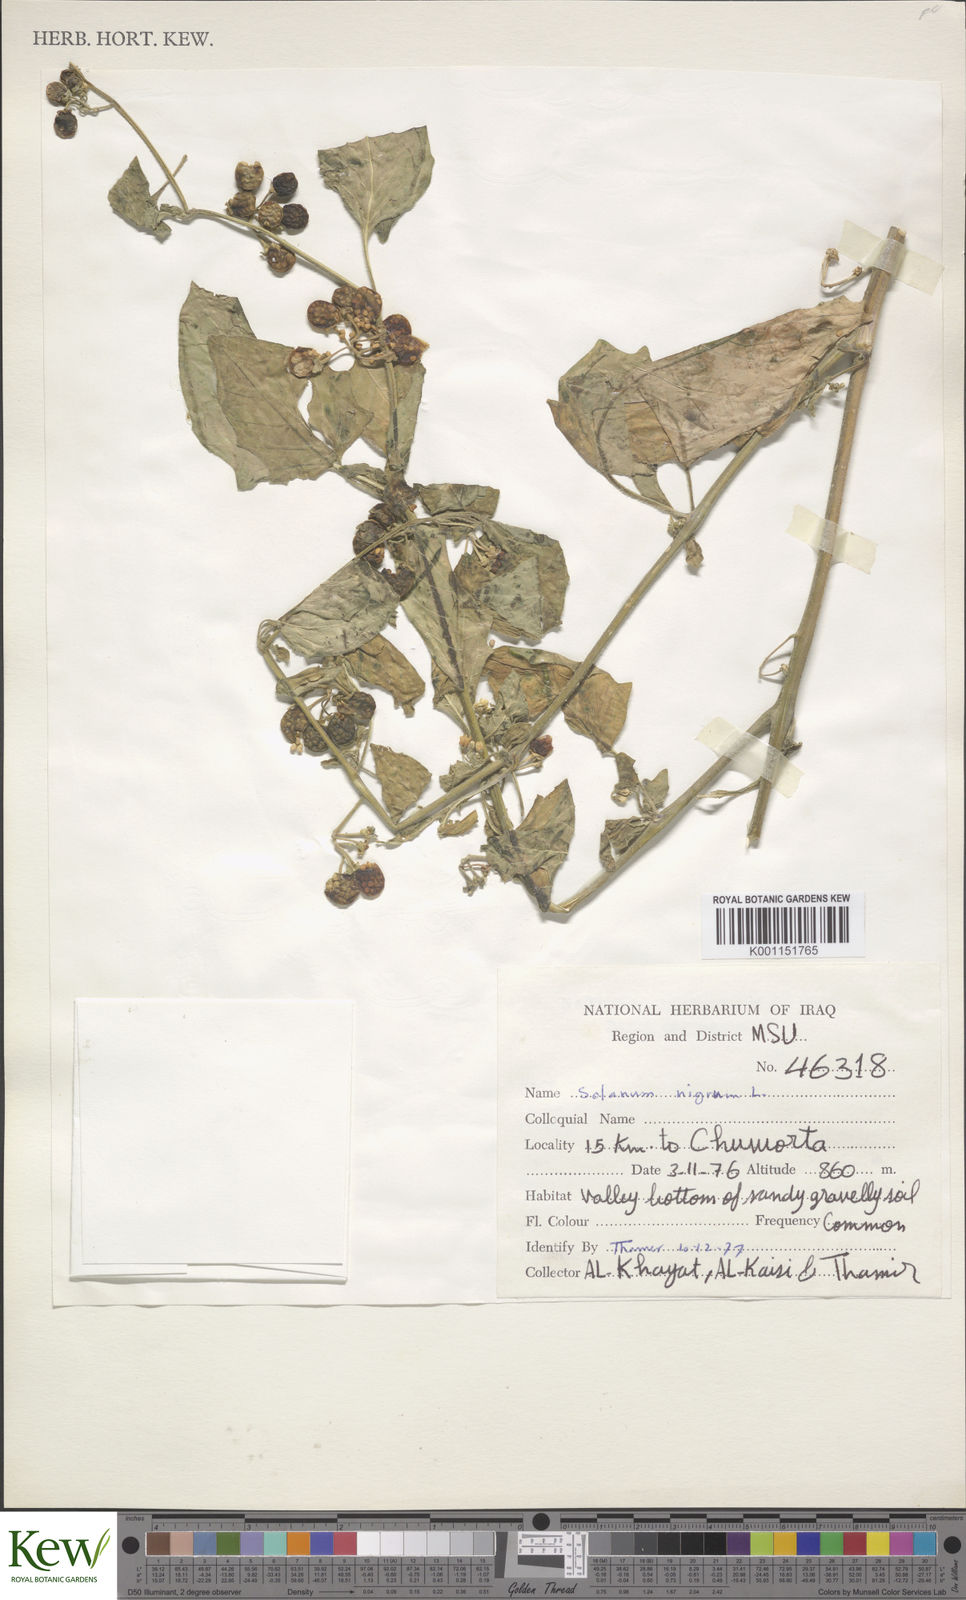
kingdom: Plantae
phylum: Tracheophyta
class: Magnoliopsida
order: Solanales
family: Solanaceae
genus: Solanum
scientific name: Solanum nigrum
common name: Black nightshade
